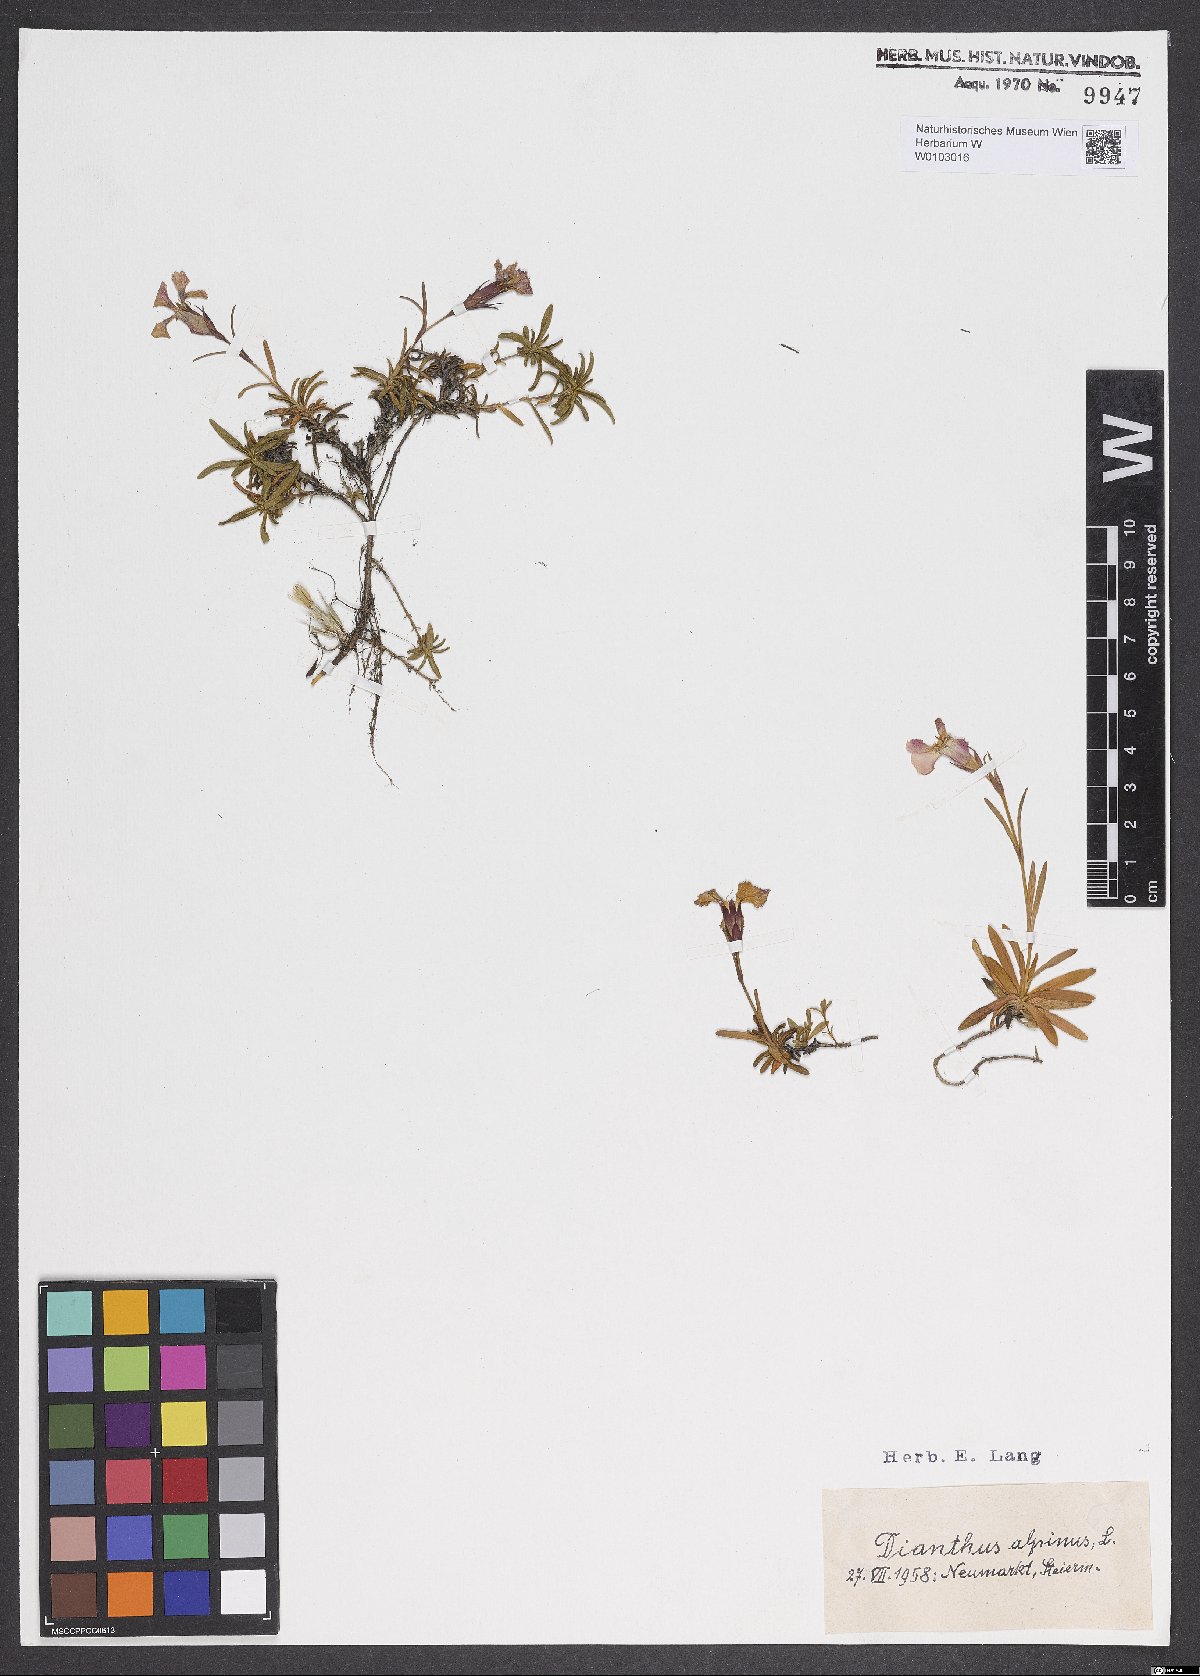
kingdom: Plantae
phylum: Tracheophyta
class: Magnoliopsida
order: Caryophyllales
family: Caryophyllaceae
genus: Dianthus
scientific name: Dianthus alpinus
